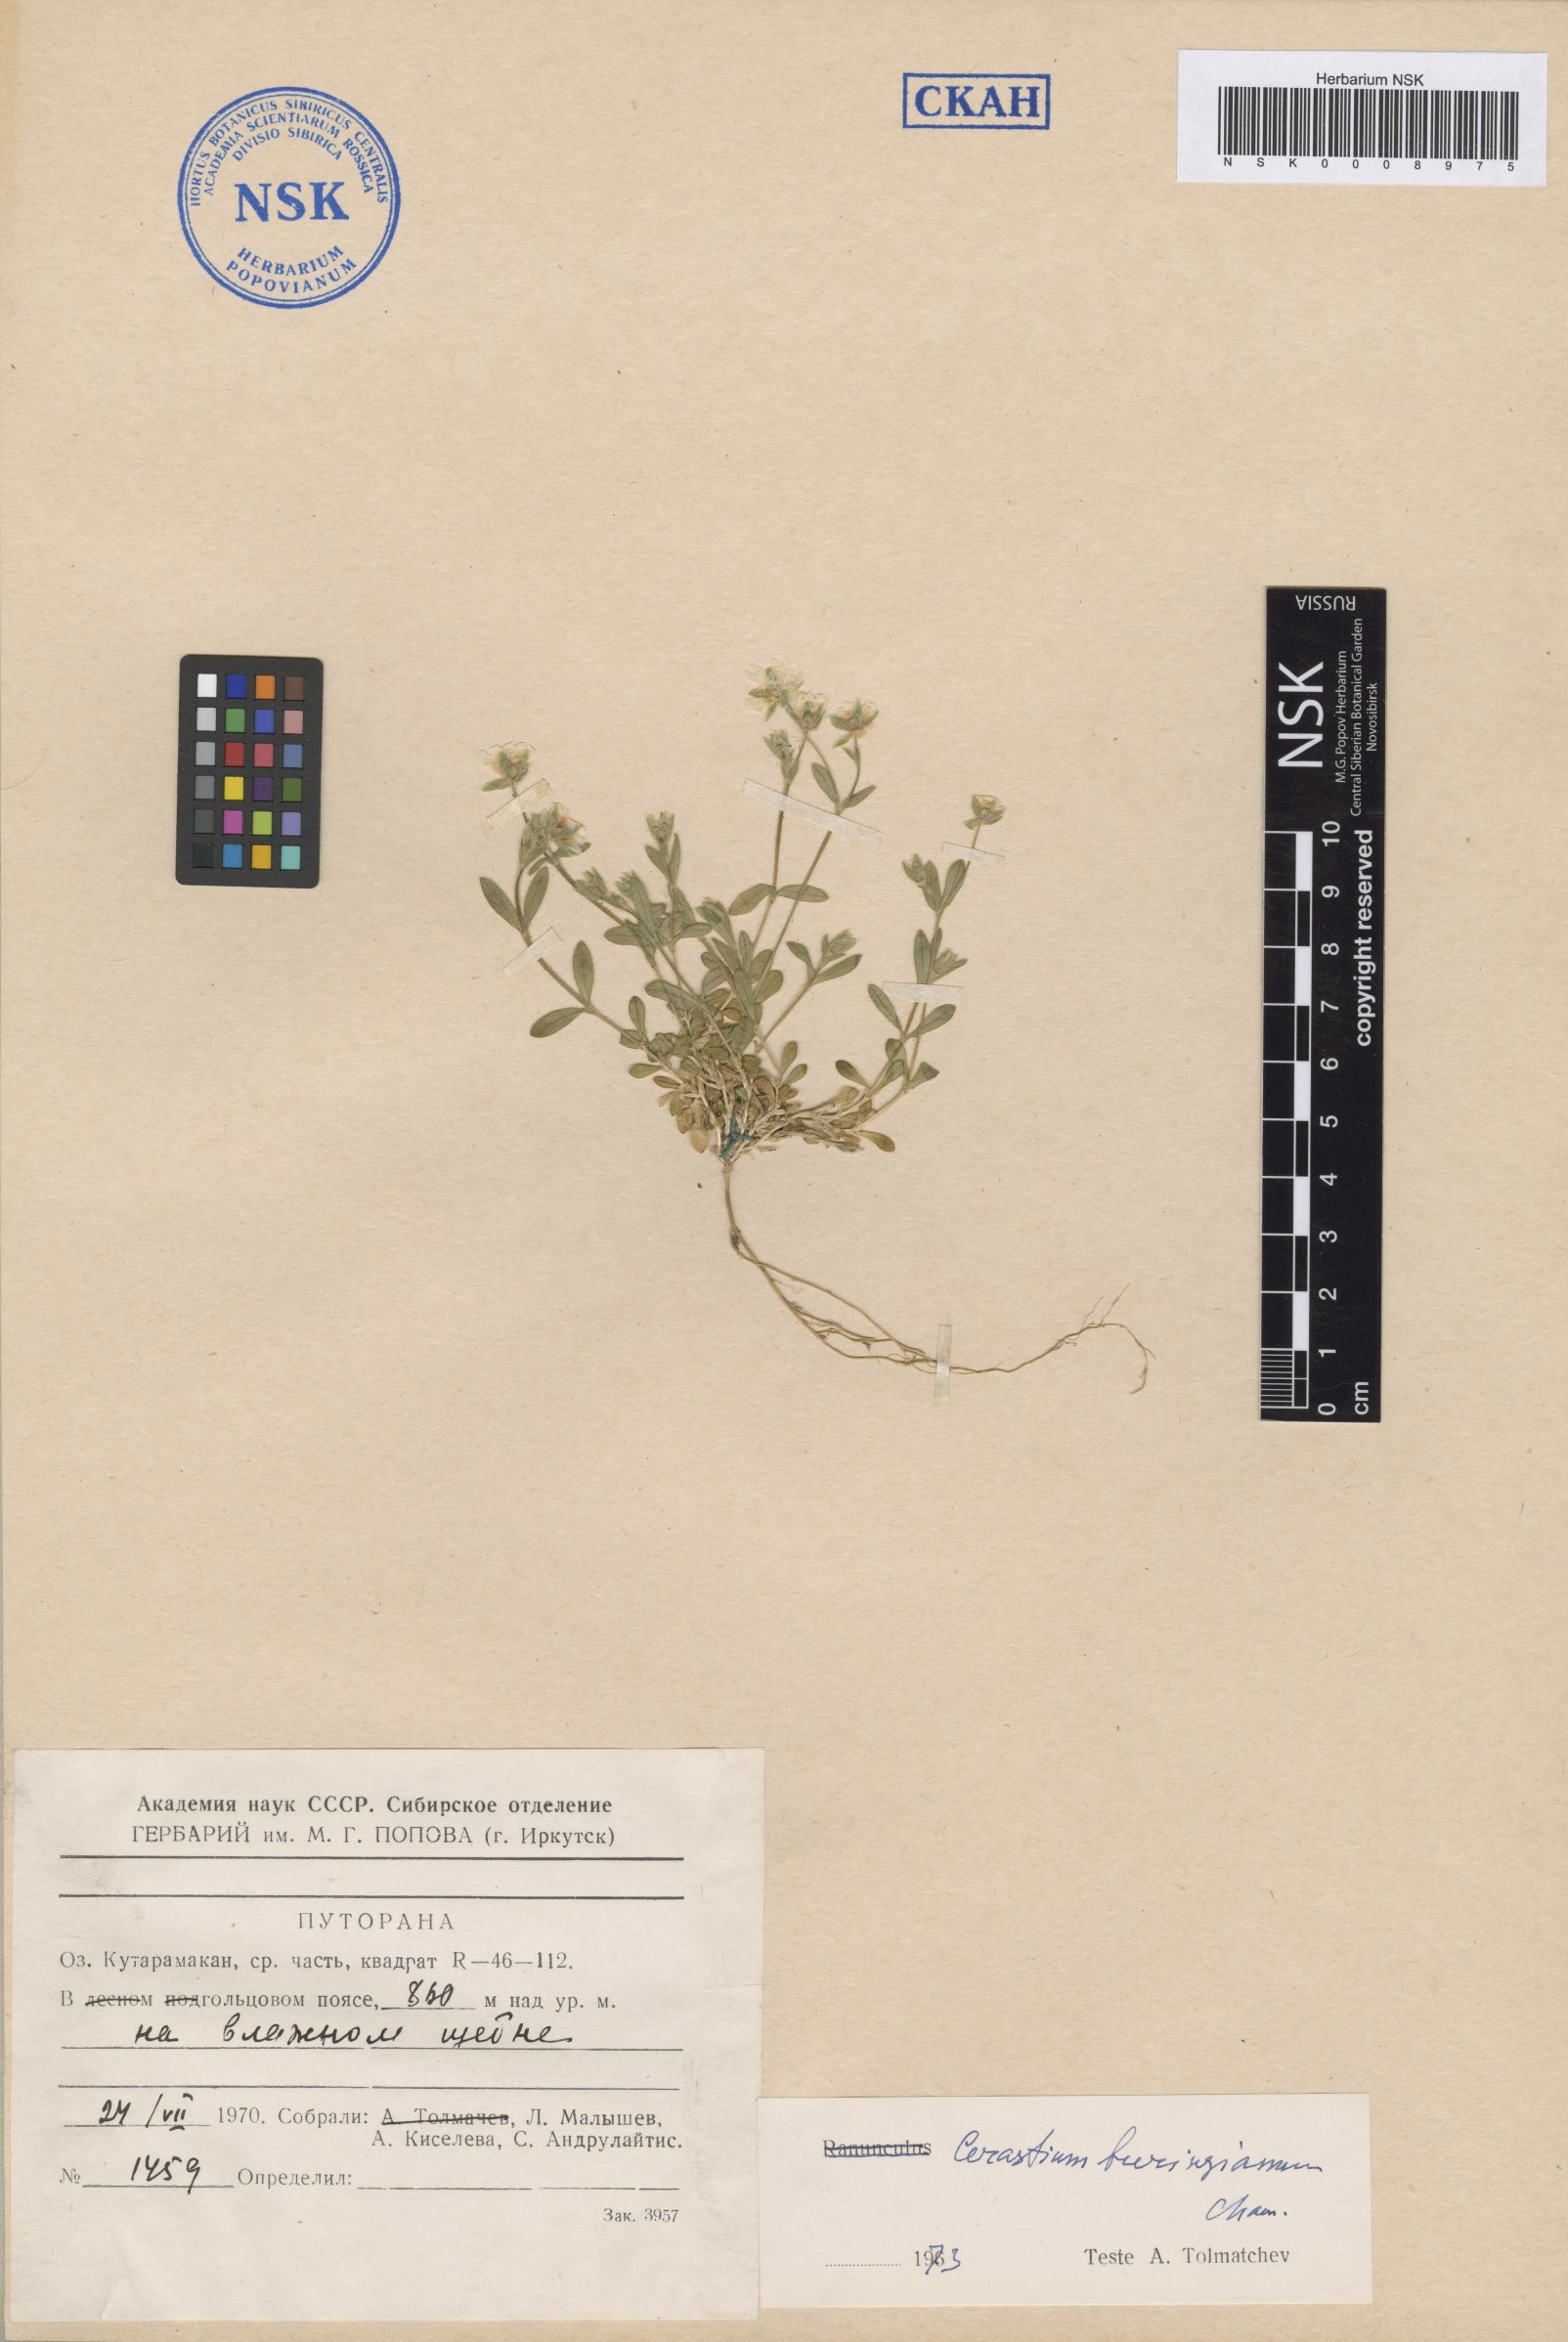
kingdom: Plantae
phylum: Tracheophyta
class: Magnoliopsida
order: Caryophyllales
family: Caryophyllaceae
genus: Cerastium
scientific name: Cerastium beeringianum
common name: Bering mouse-ear chickweed
